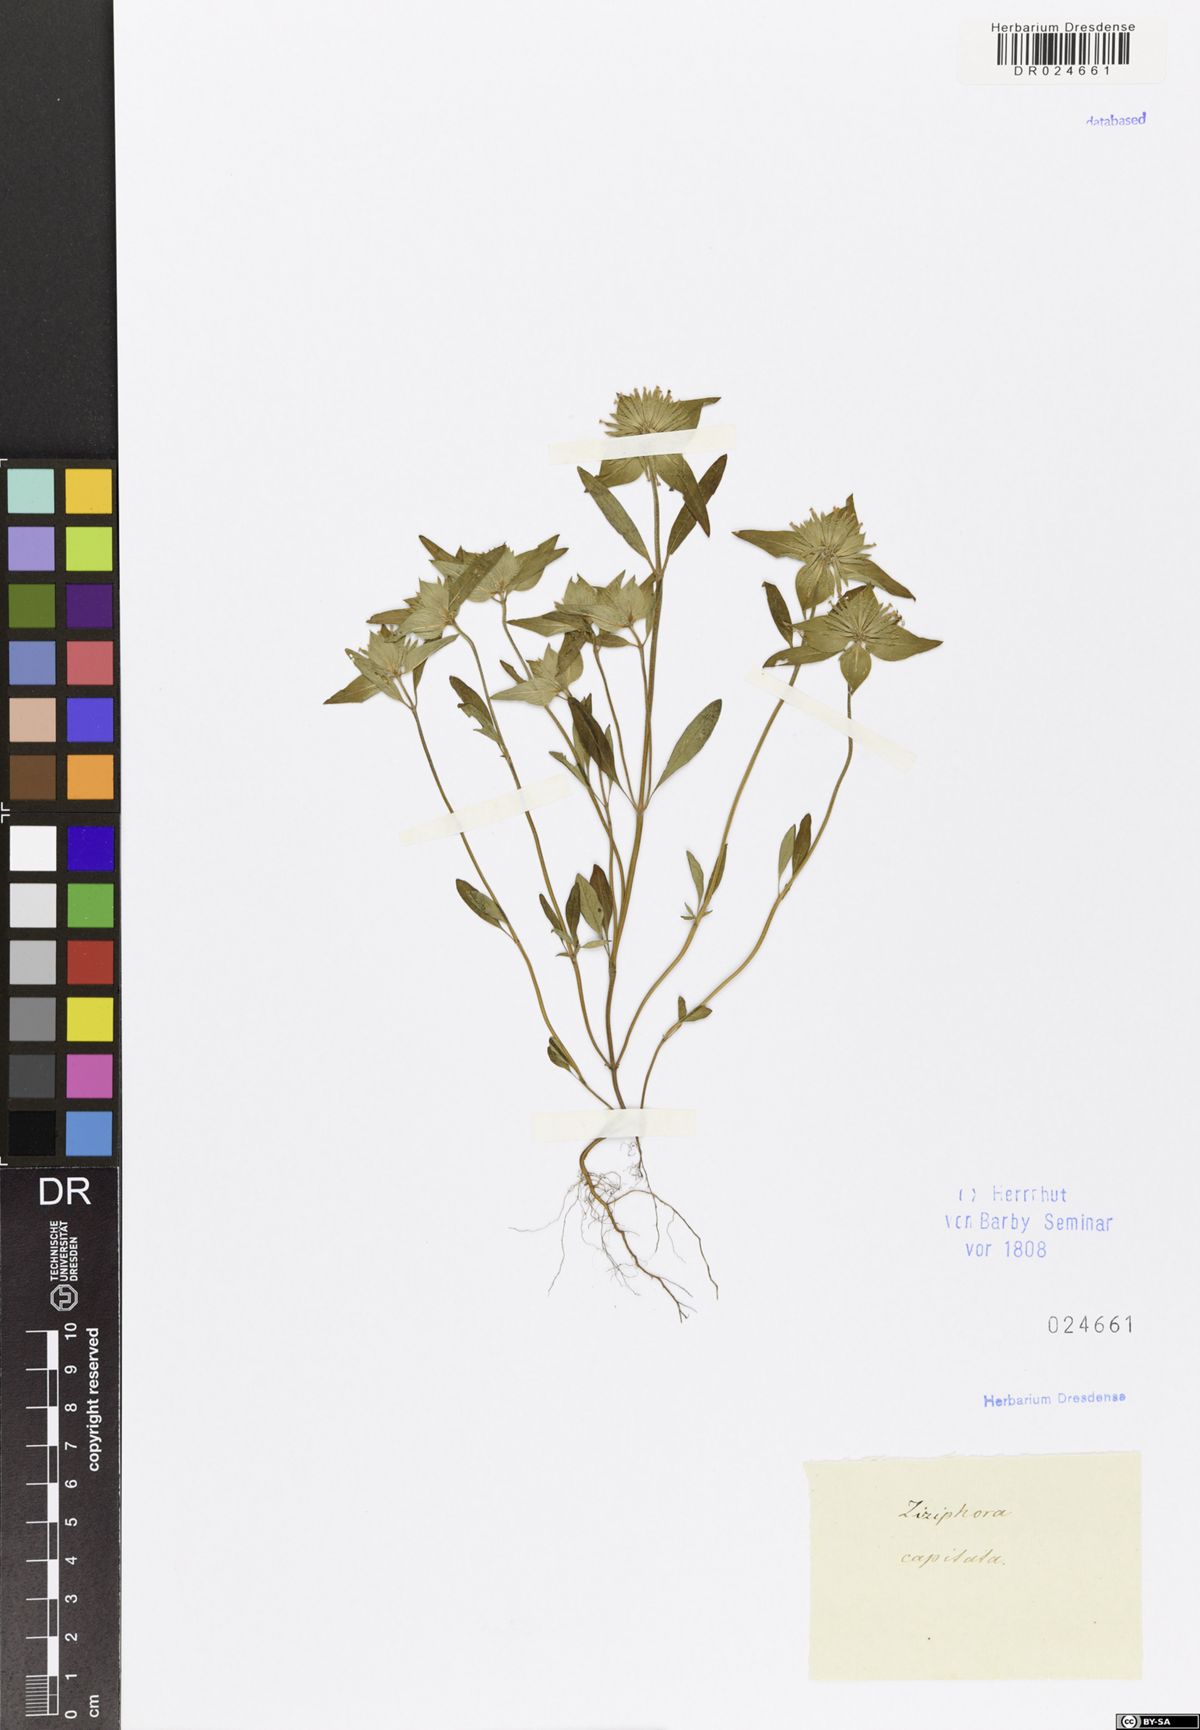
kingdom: Plantae
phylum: Tracheophyta
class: Magnoliopsida
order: Lamiales
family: Lamiaceae
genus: Ziziphora
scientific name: Ziziphora capitata
